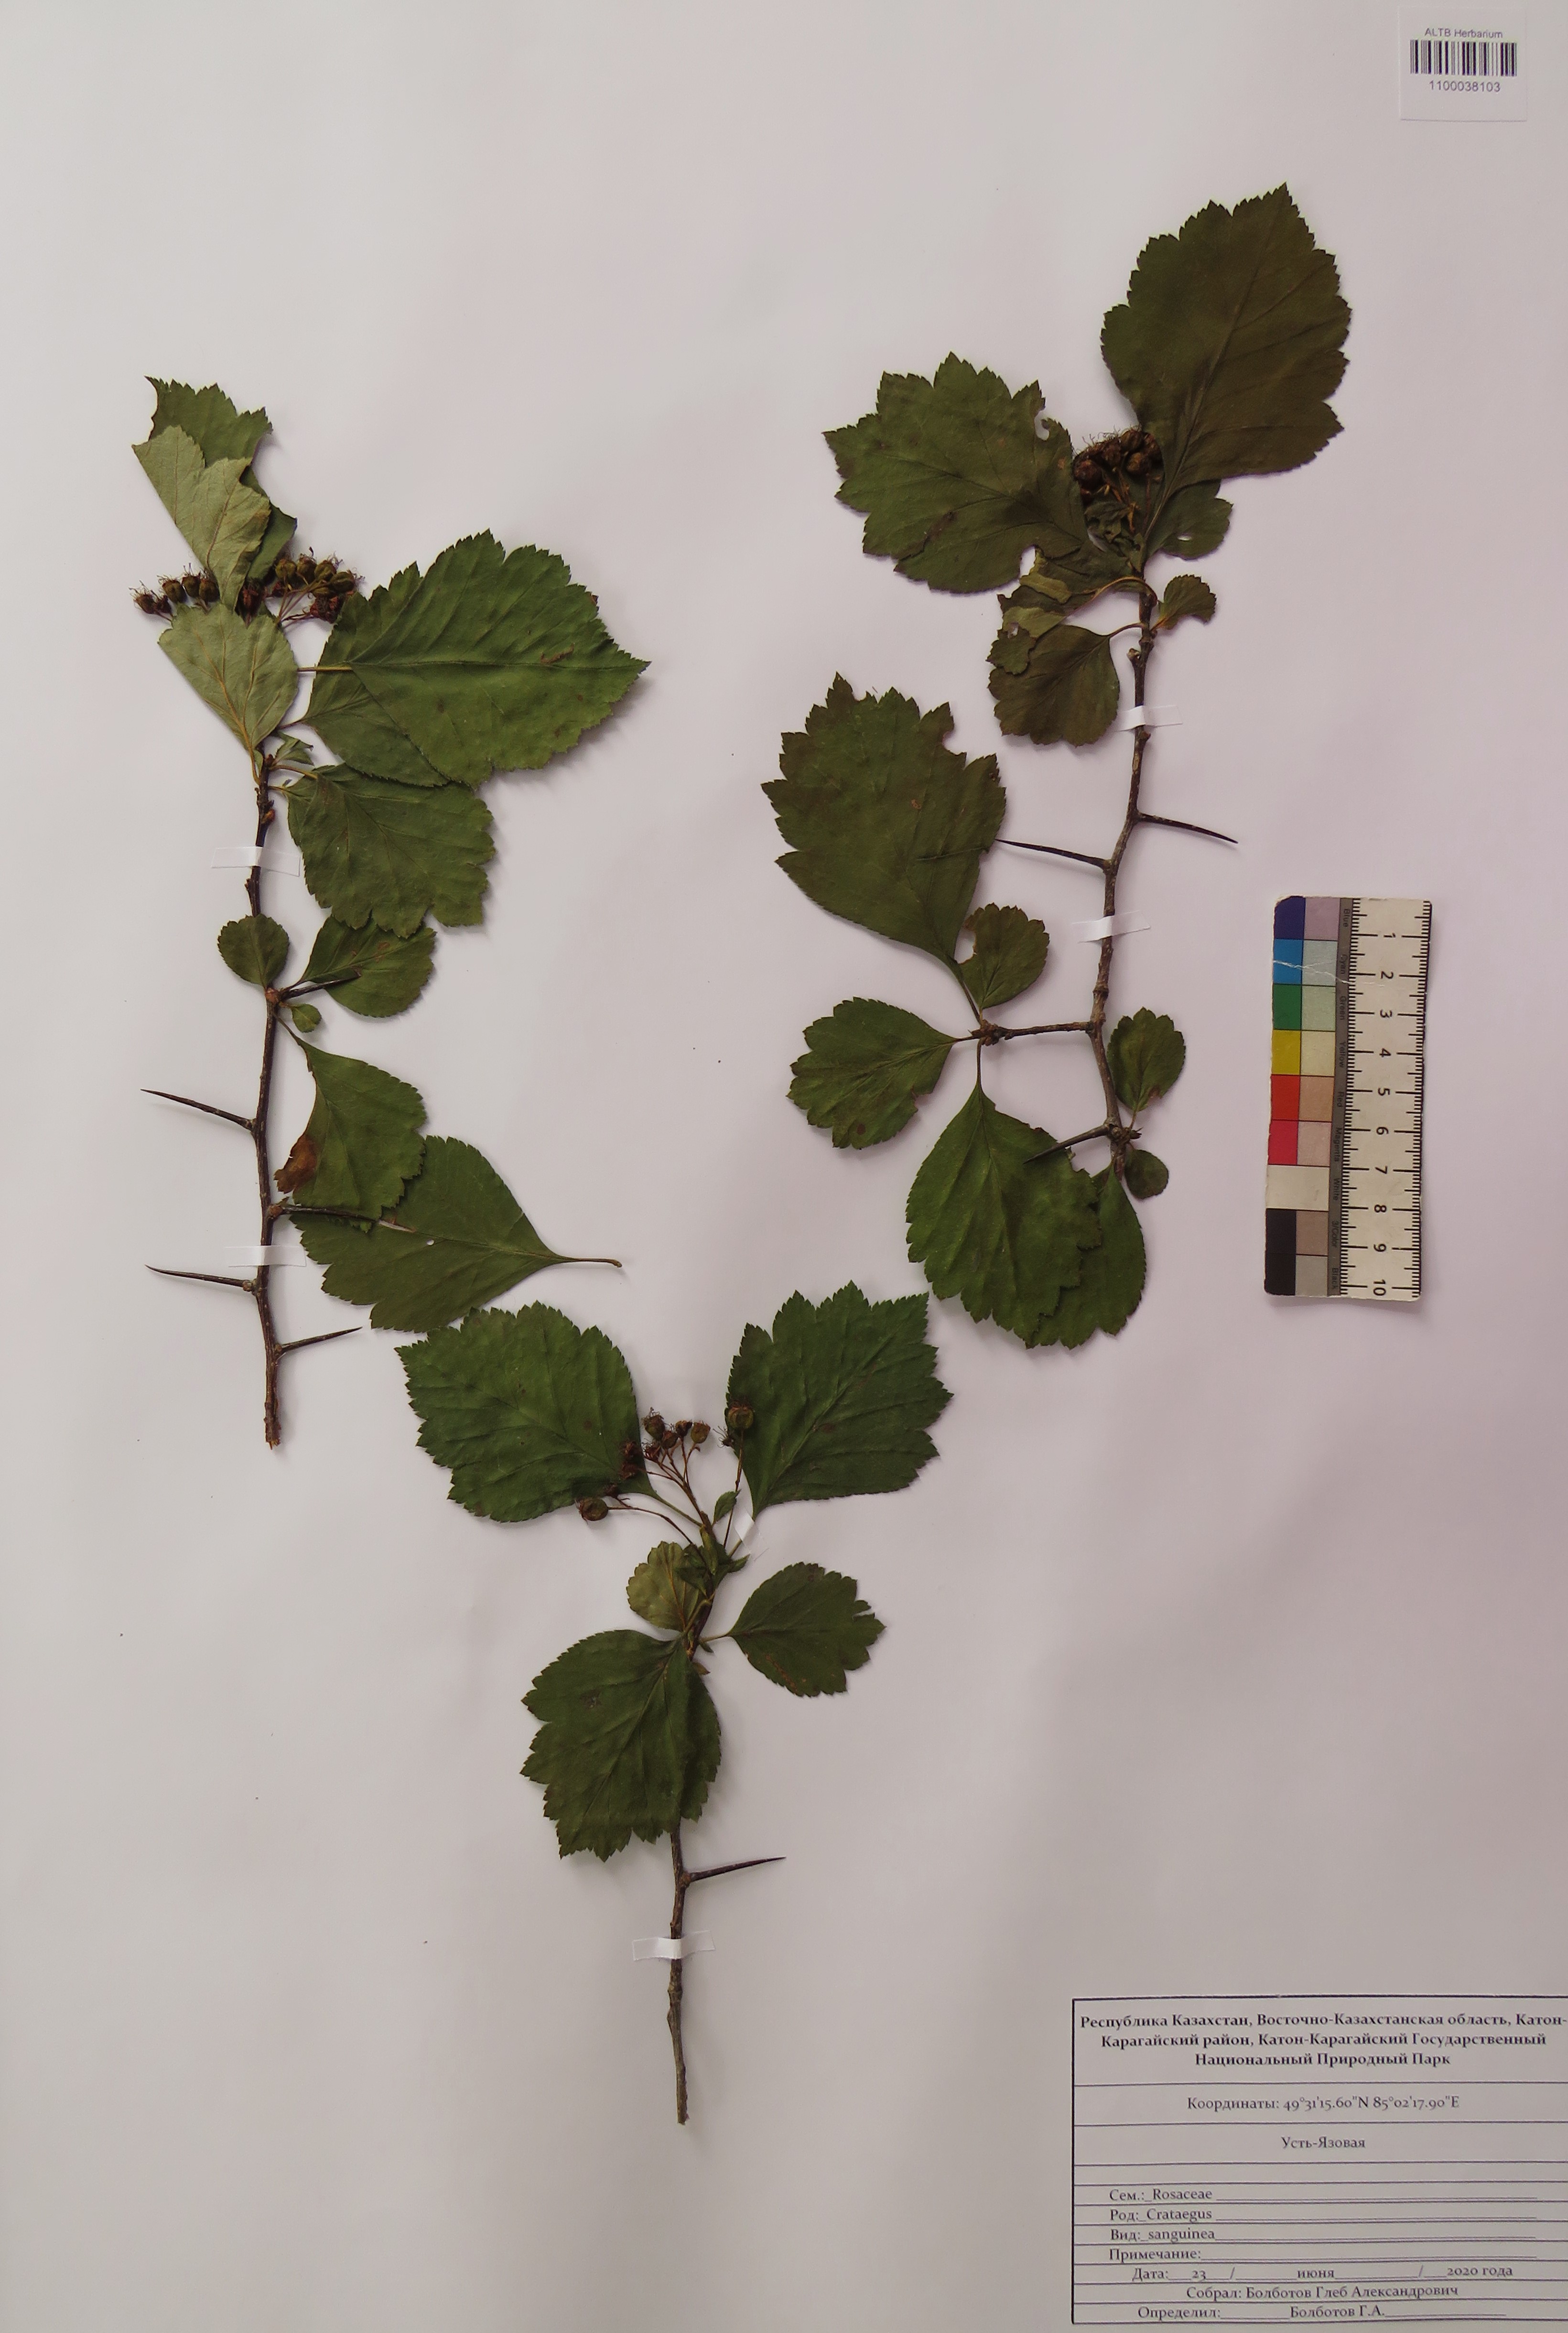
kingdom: Plantae
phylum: Tracheophyta
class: Magnoliopsida
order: Rosales
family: Rosaceae
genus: Crataegus
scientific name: Crataegus sanguinea
